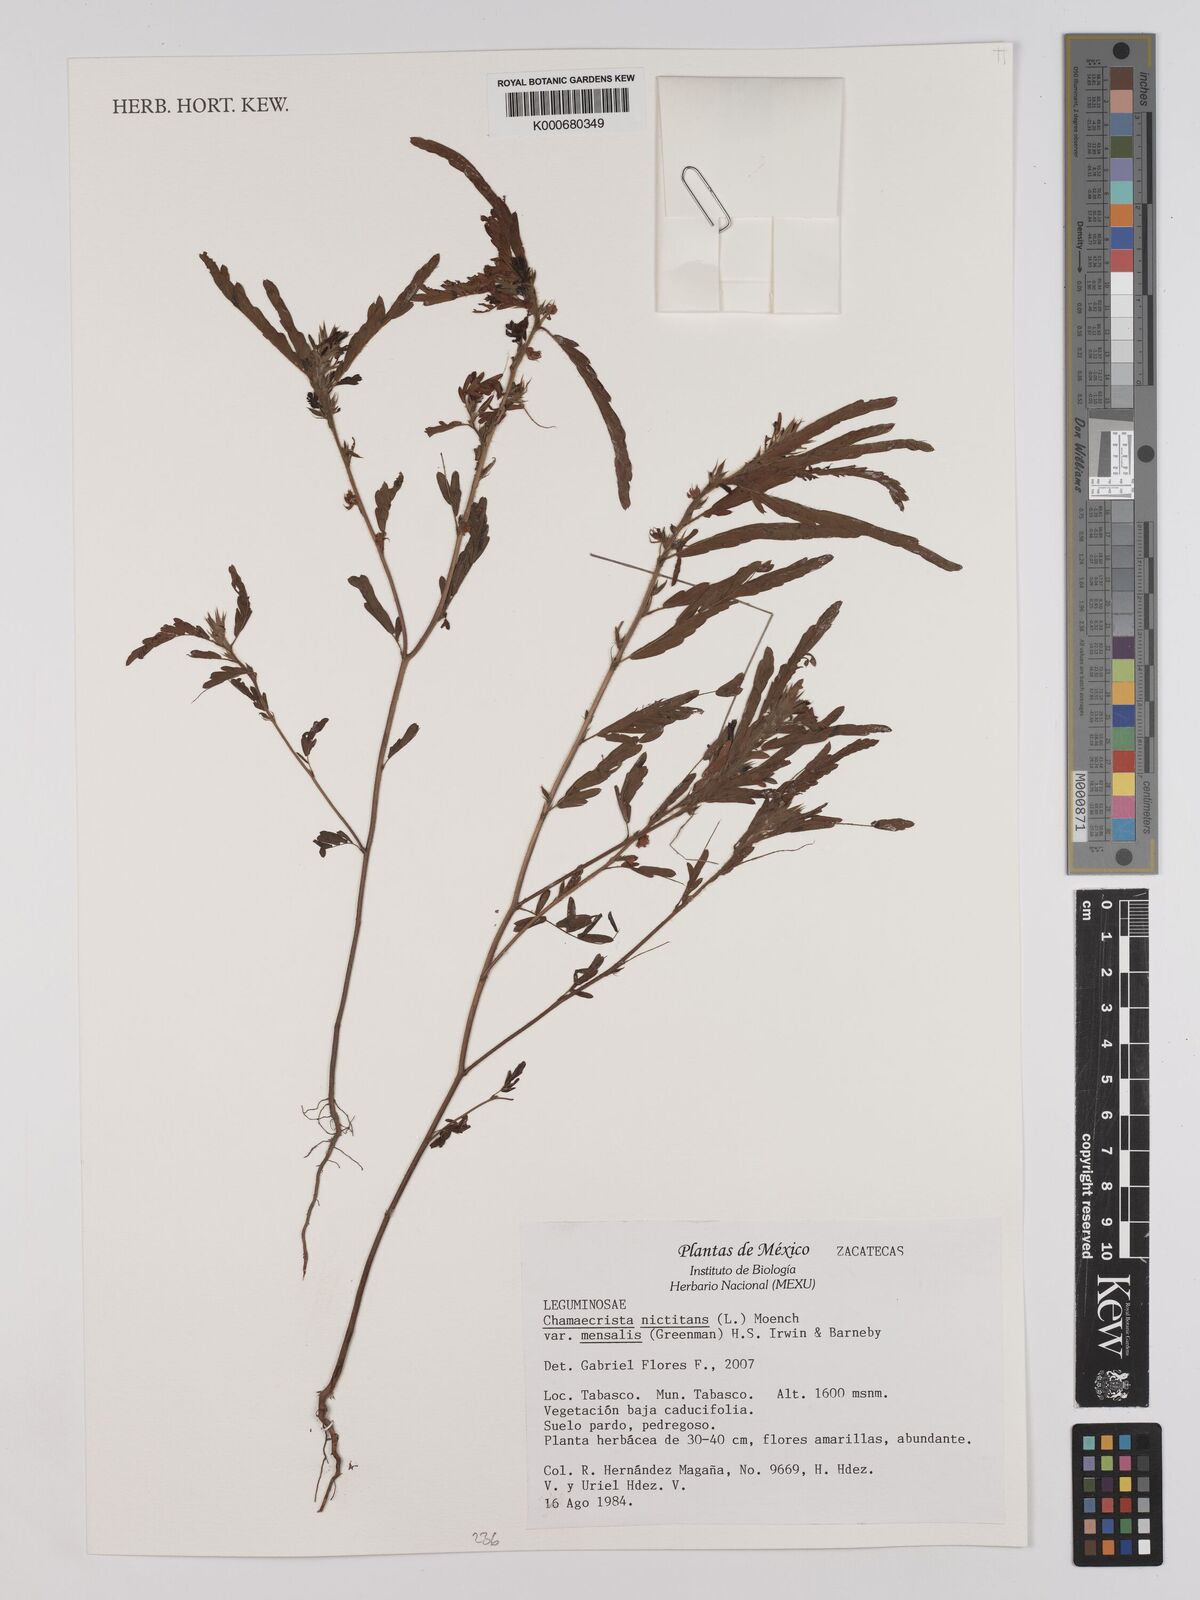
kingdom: Plantae
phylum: Tracheophyta
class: Magnoliopsida
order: Fabales
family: Fabaceae
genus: Chamaecrista
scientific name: Chamaecrista nictitans
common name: Sensitive cassia
